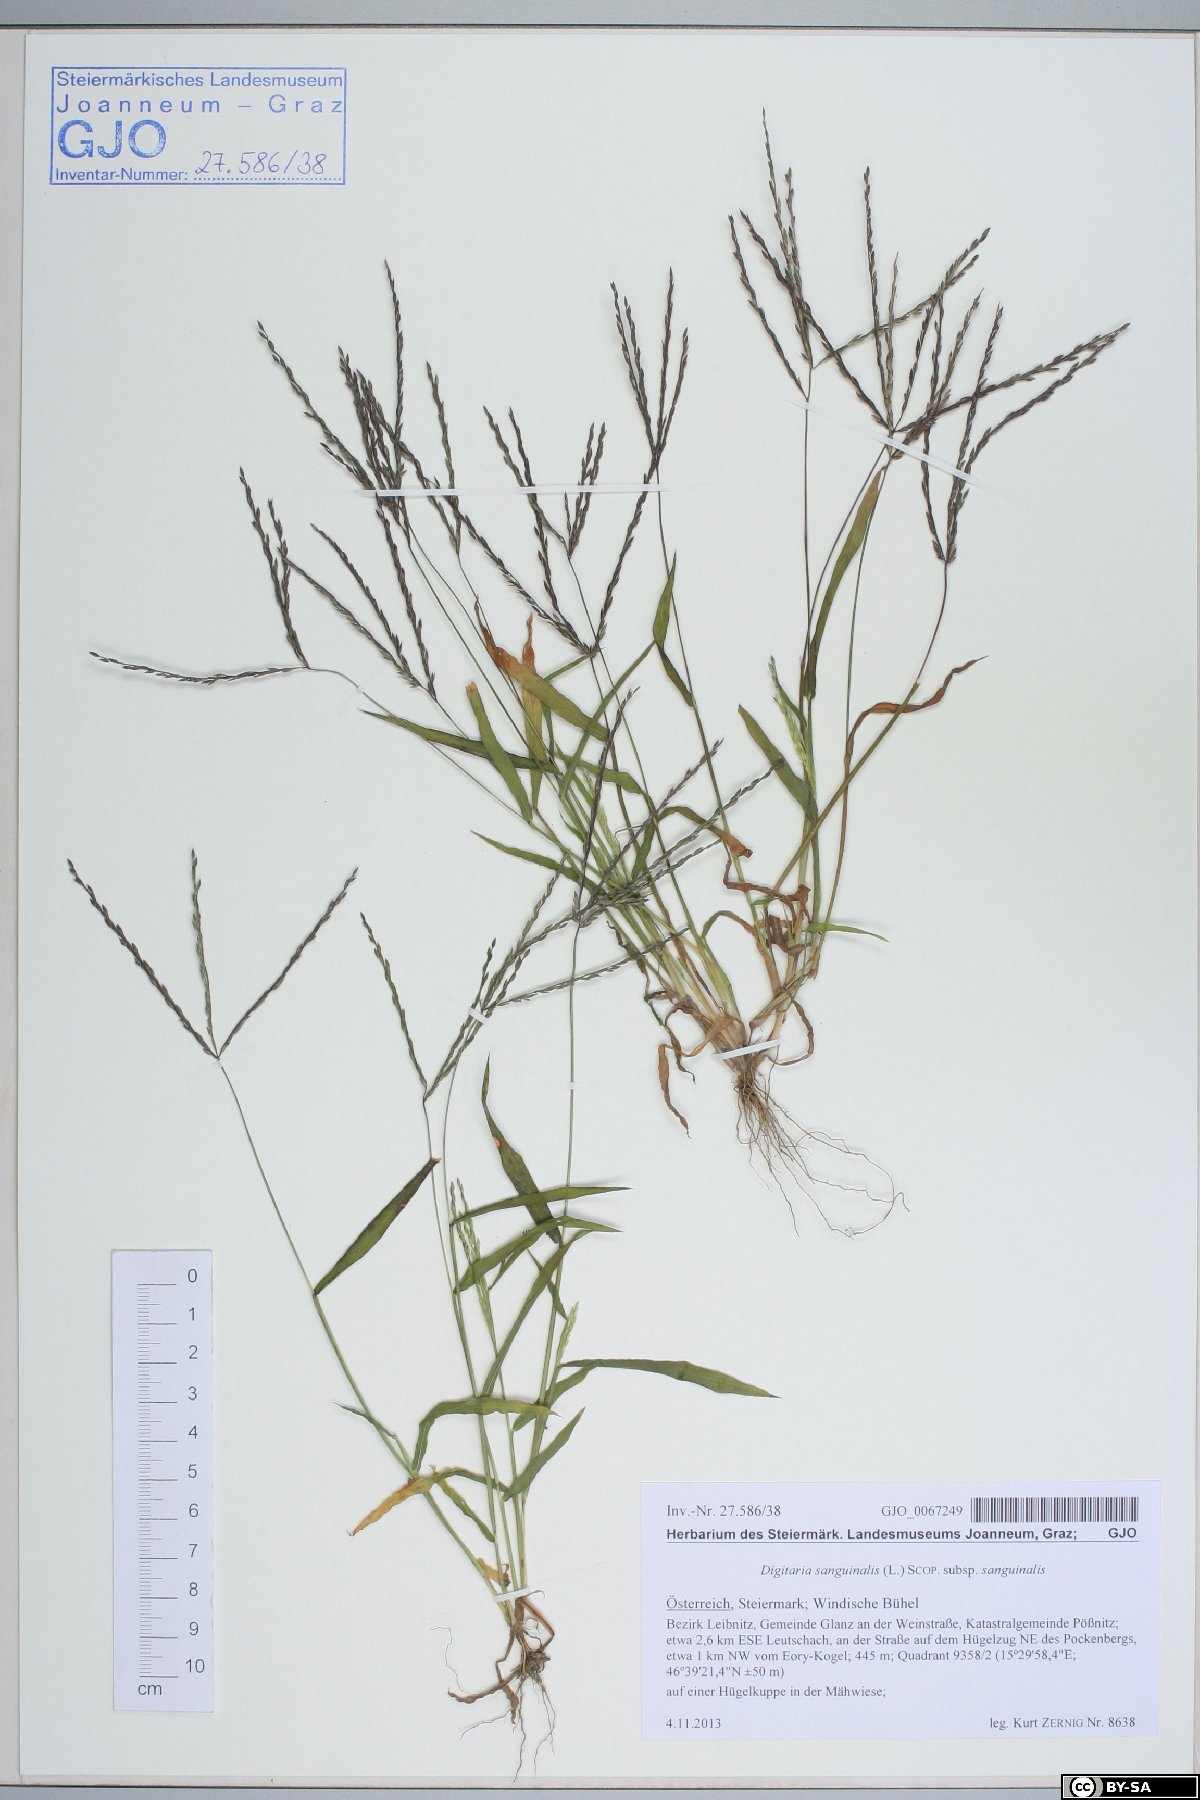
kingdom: Plantae
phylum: Tracheophyta
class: Liliopsida
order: Poales
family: Poaceae
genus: Digitaria
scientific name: Digitaria sanguinalis
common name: Hairy crabgrass
